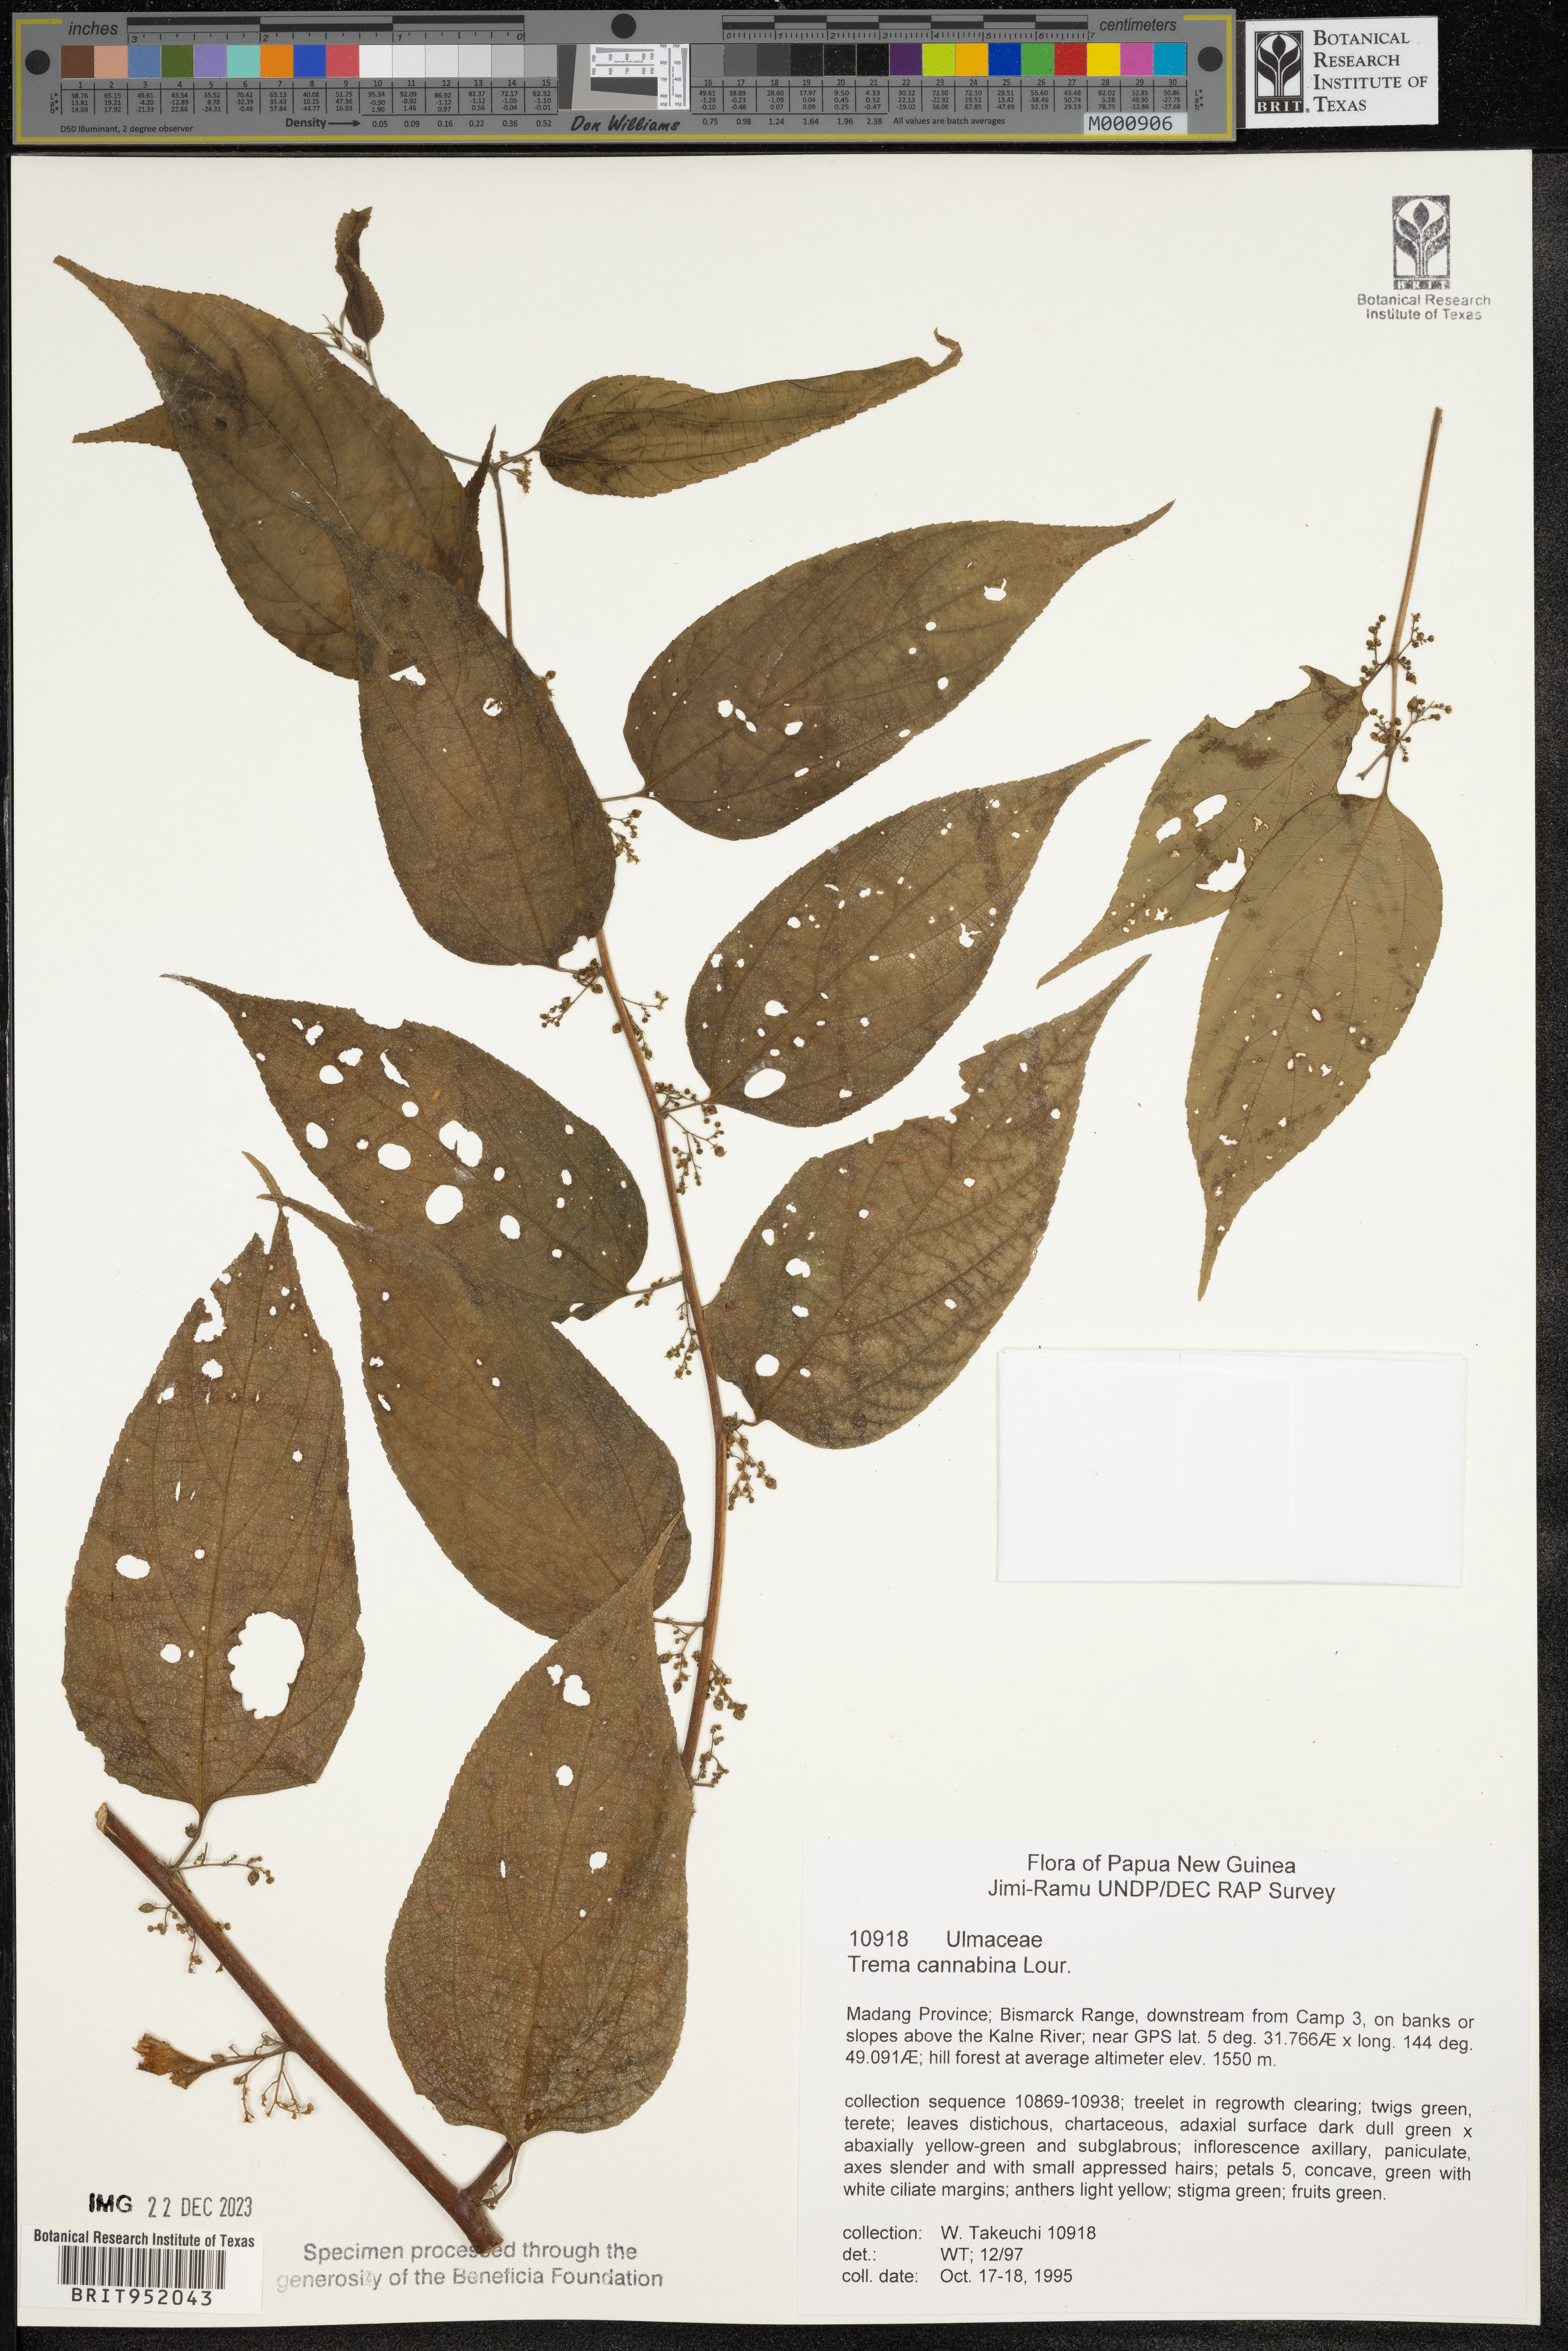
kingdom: Plantae
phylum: Tracheophyta
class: Magnoliopsida
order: Rosales
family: Cannabaceae
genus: Trema
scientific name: Trema cannabina
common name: Poison-peach
